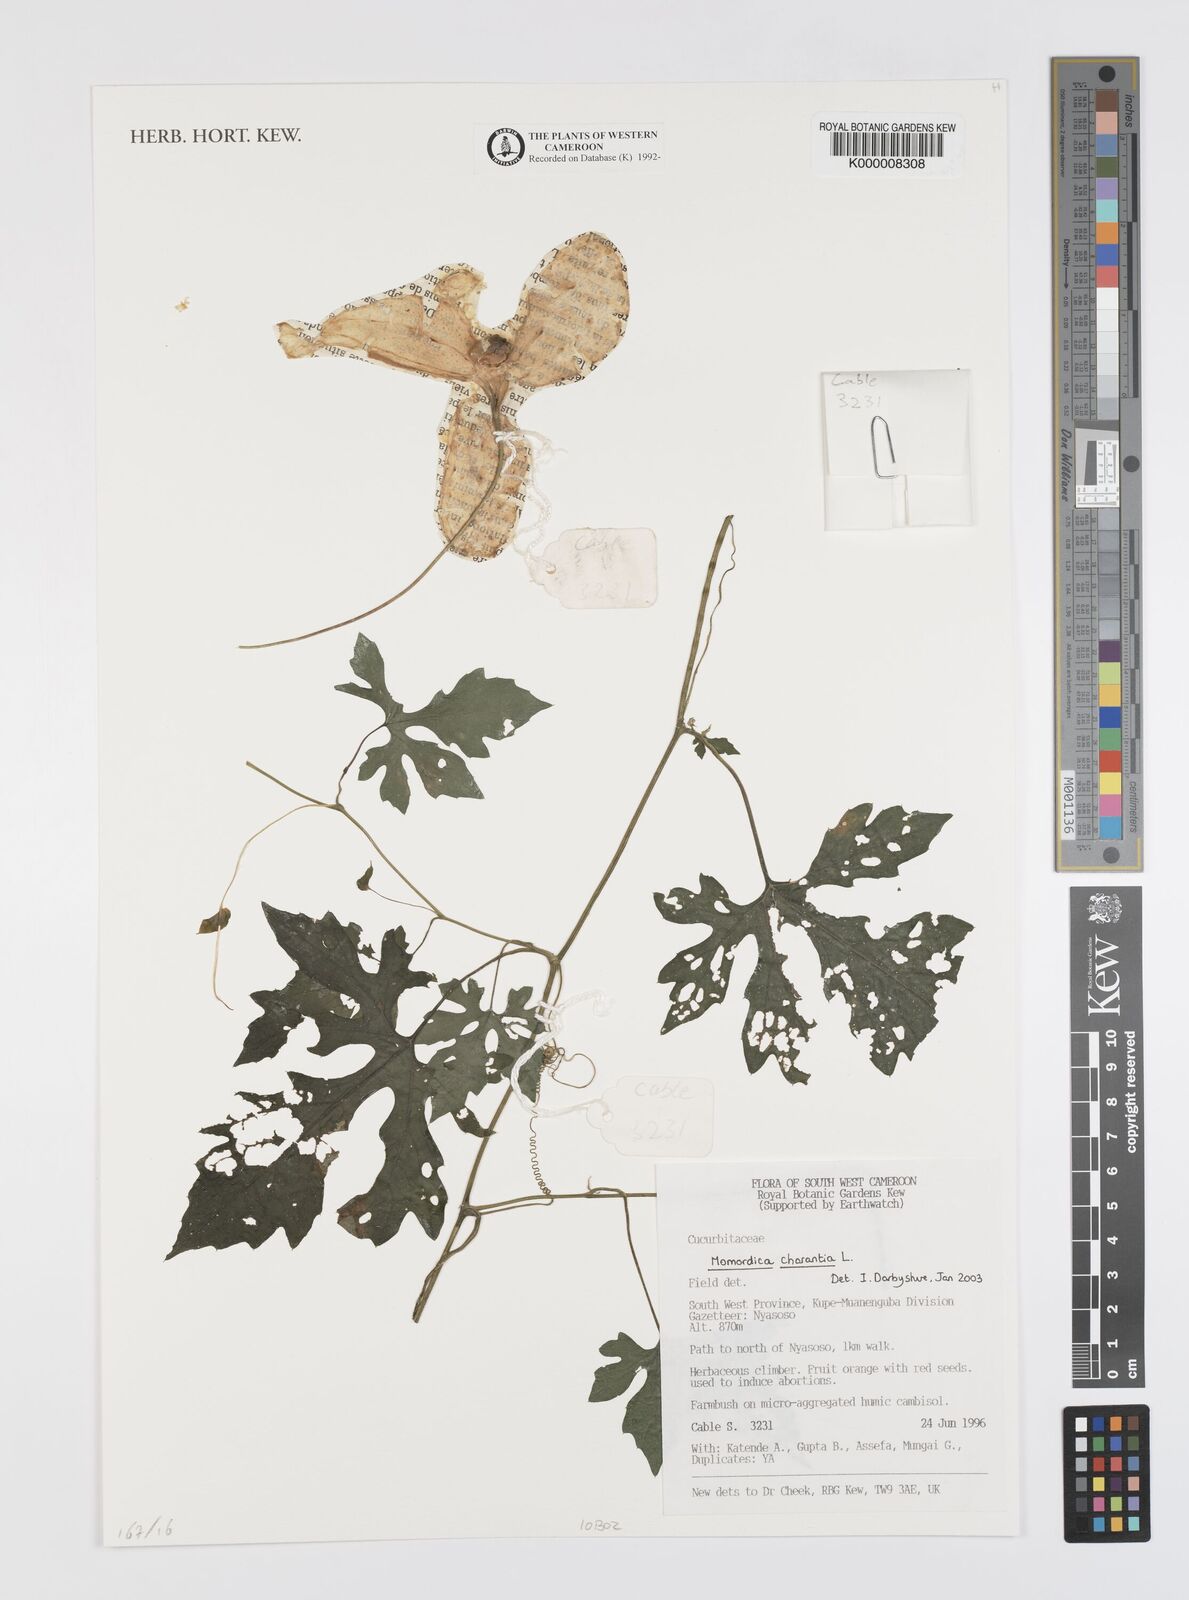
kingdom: Plantae
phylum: Tracheophyta
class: Magnoliopsida
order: Cucurbitales
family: Cucurbitaceae
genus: Momordica
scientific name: Momordica charantia
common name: Balsampear
